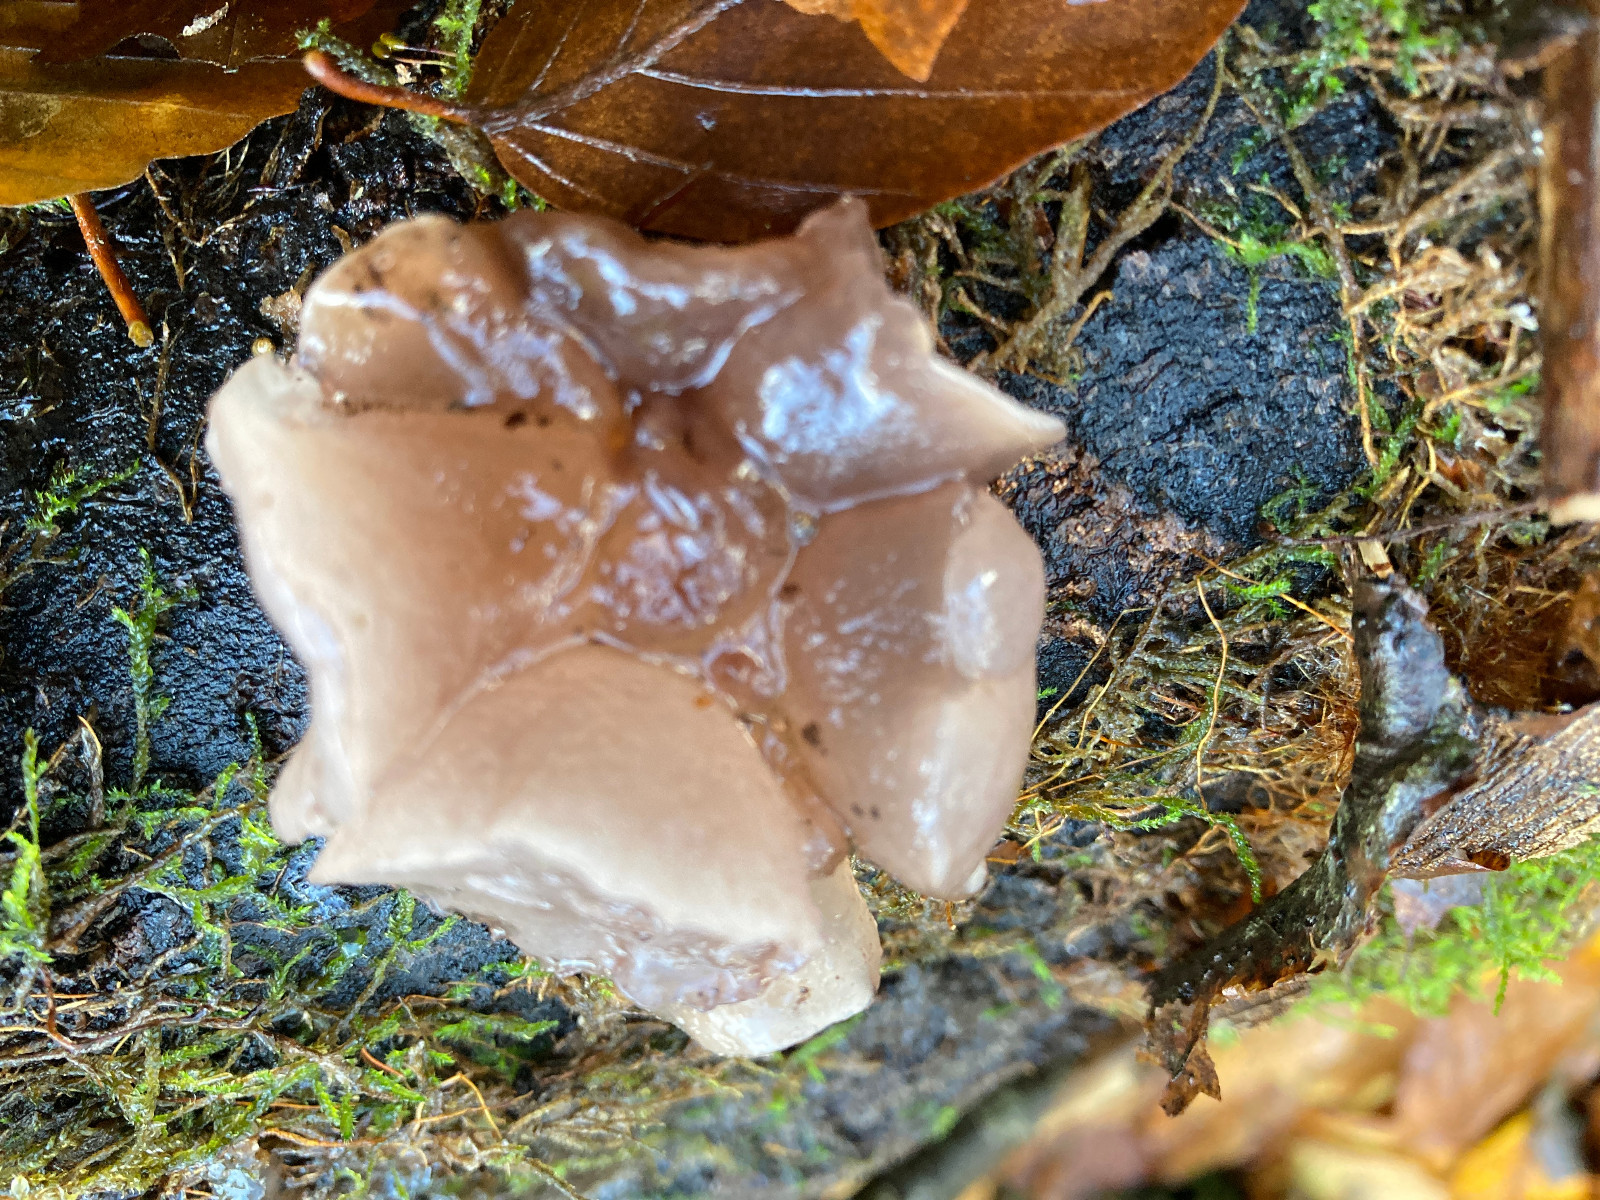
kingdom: Fungi
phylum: Ascomycota
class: Leotiomycetes
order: Helotiales
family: Gelatinodiscaceae
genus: Neobulgaria
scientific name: Neobulgaria pura
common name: bleg bævreskive
